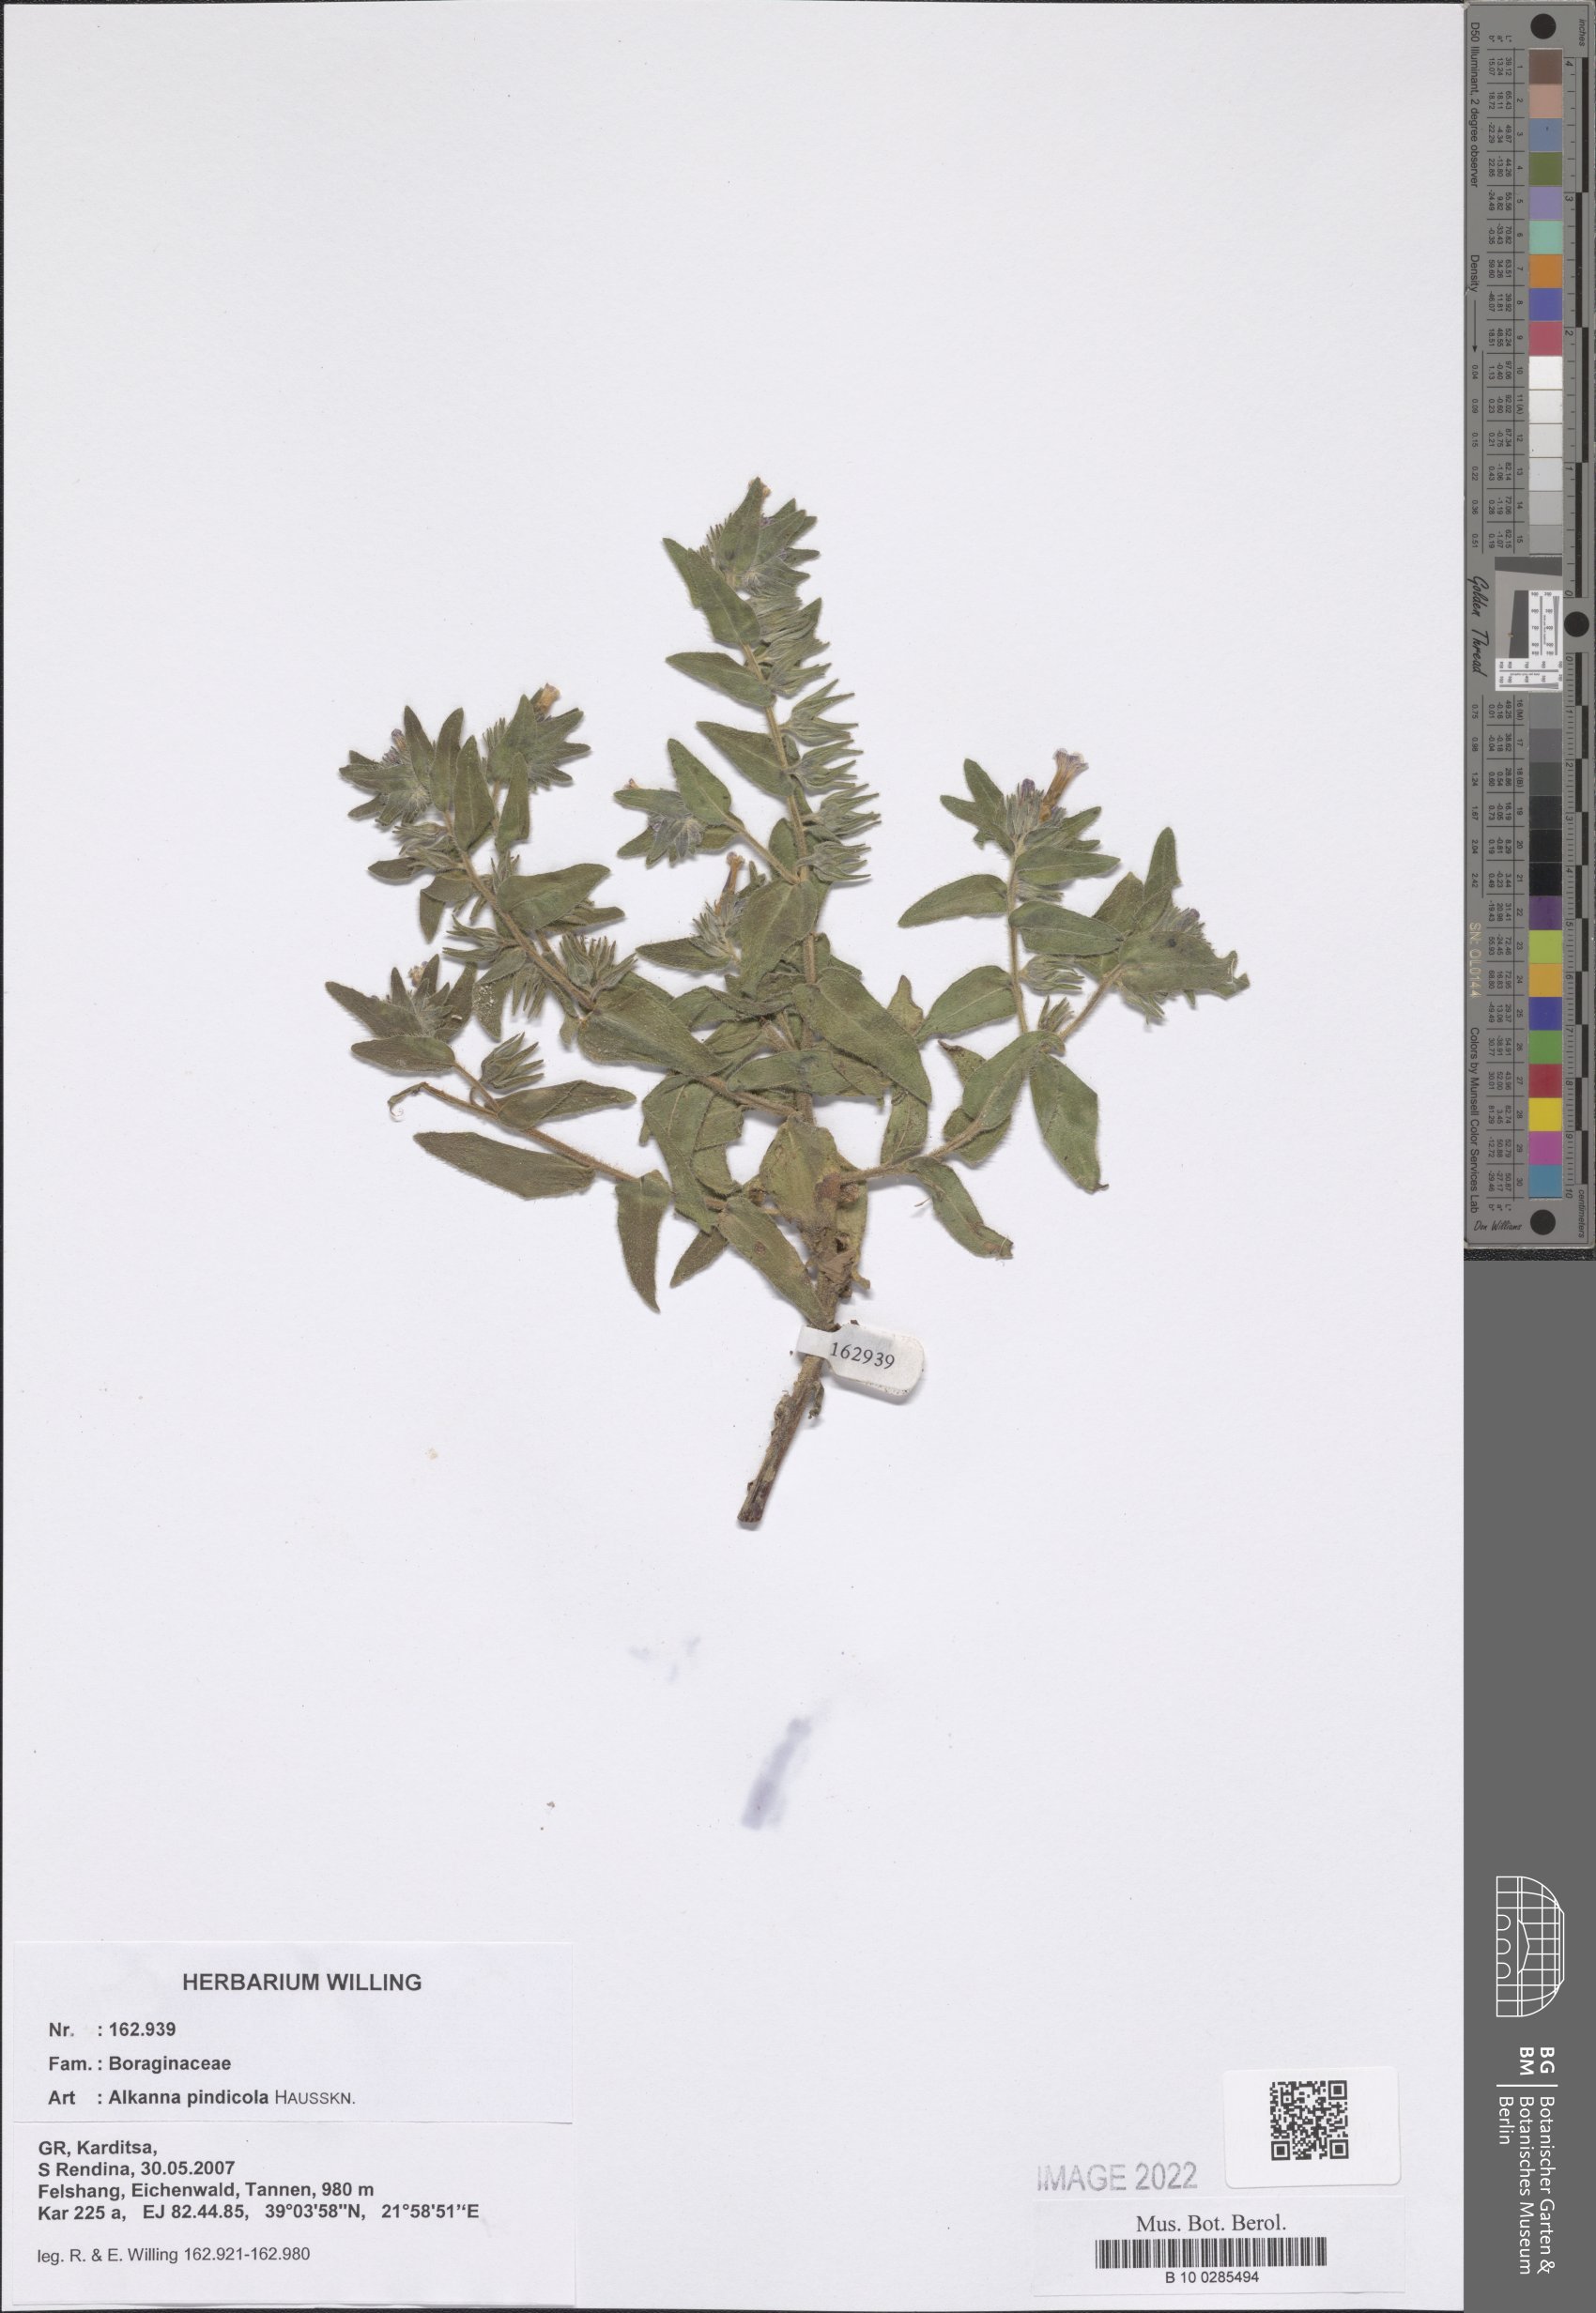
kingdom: Plantae
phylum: Tracheophyta
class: Magnoliopsida
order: Boraginales
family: Boraginaceae
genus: Alkanna
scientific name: Alkanna pindicola
